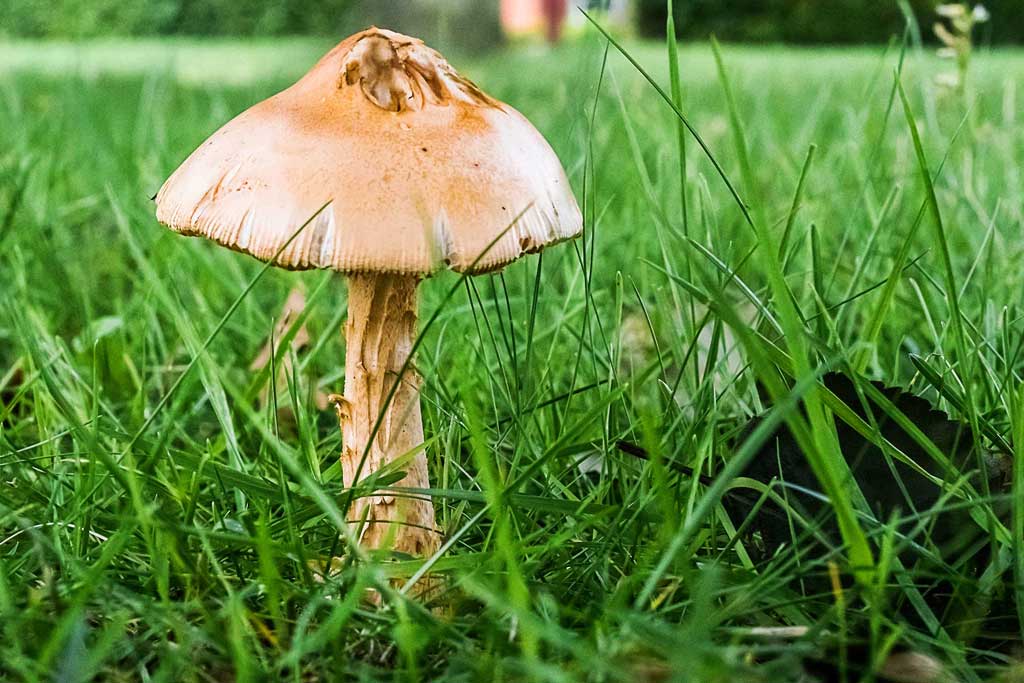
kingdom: Fungi
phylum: Basidiomycota
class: Agaricomycetes
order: Agaricales
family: Amanitaceae
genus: Amanita
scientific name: Amanita crocea
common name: gylden kam-fluesvamp
